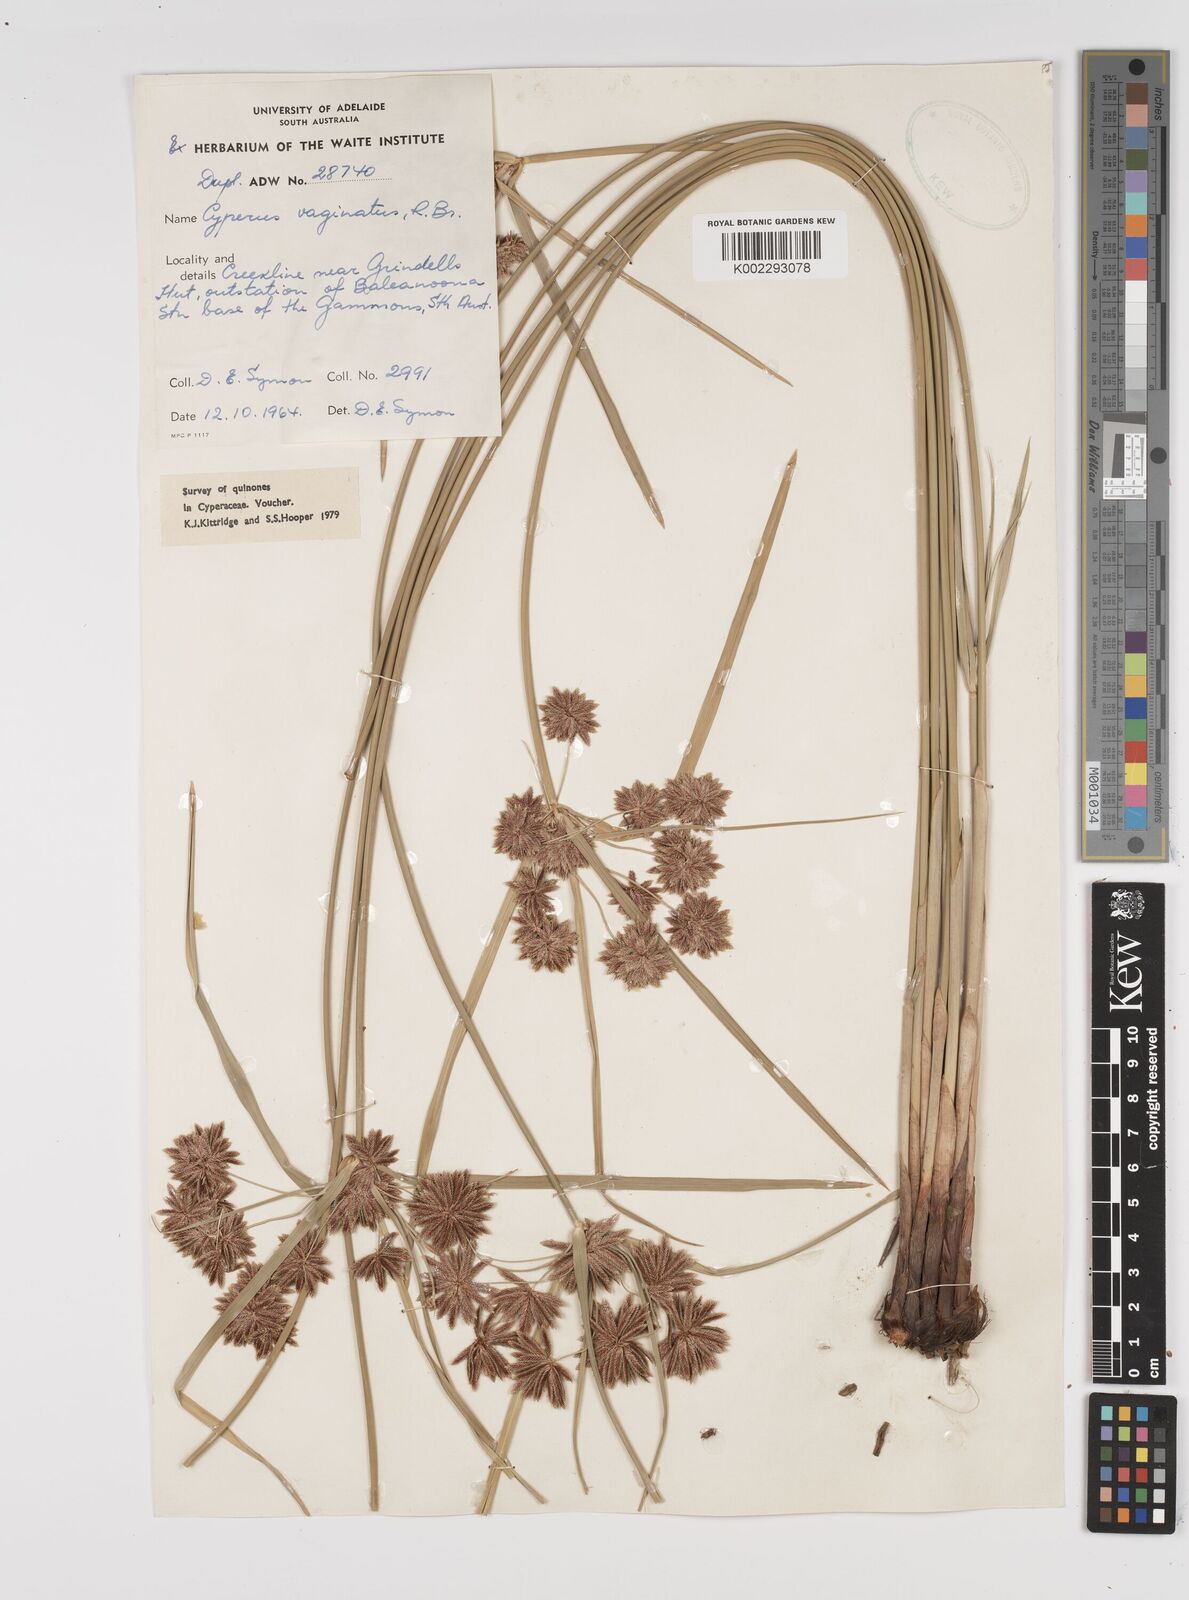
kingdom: Plantae
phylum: Tracheophyta
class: Liliopsida
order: Poales
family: Cyperaceae
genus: Cyperus
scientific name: Cyperus vaginatus
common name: Stiff-leaved flat-sedge
